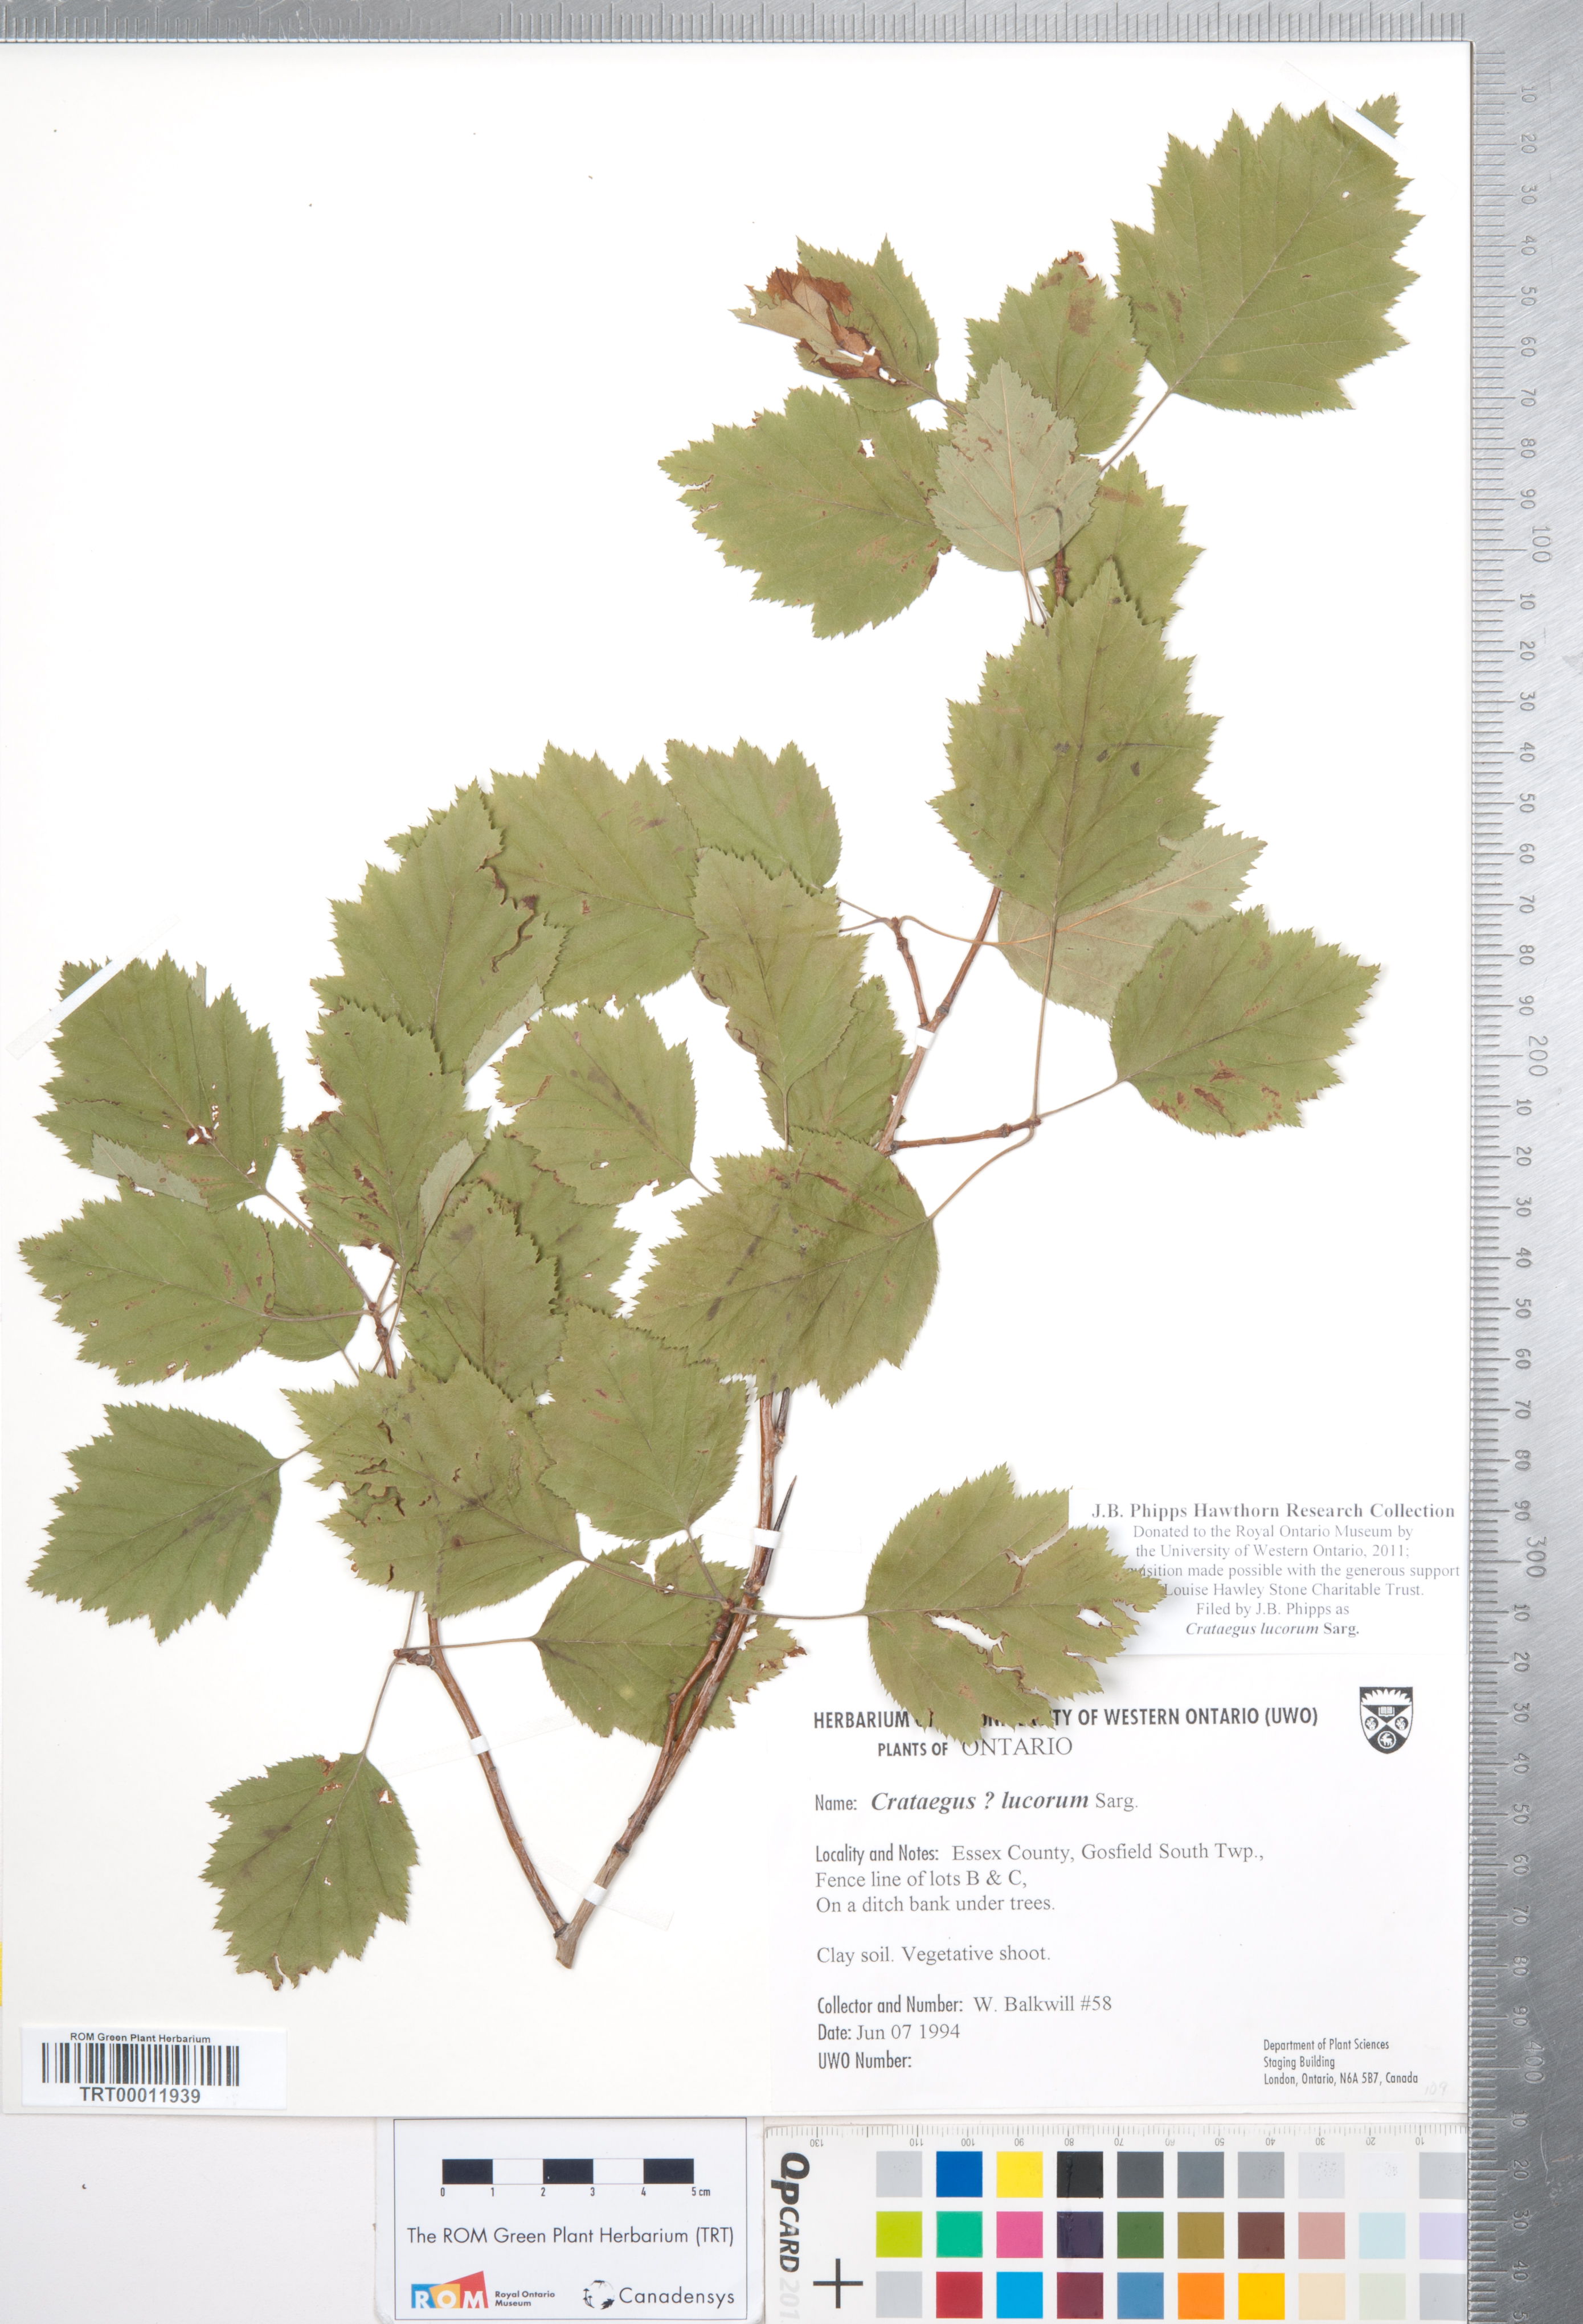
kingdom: Plantae
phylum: Tracheophyta
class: Magnoliopsida
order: Rosales
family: Rosaceae
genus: Crataegus
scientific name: Crataegus lucorum
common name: Grove hawthorn
